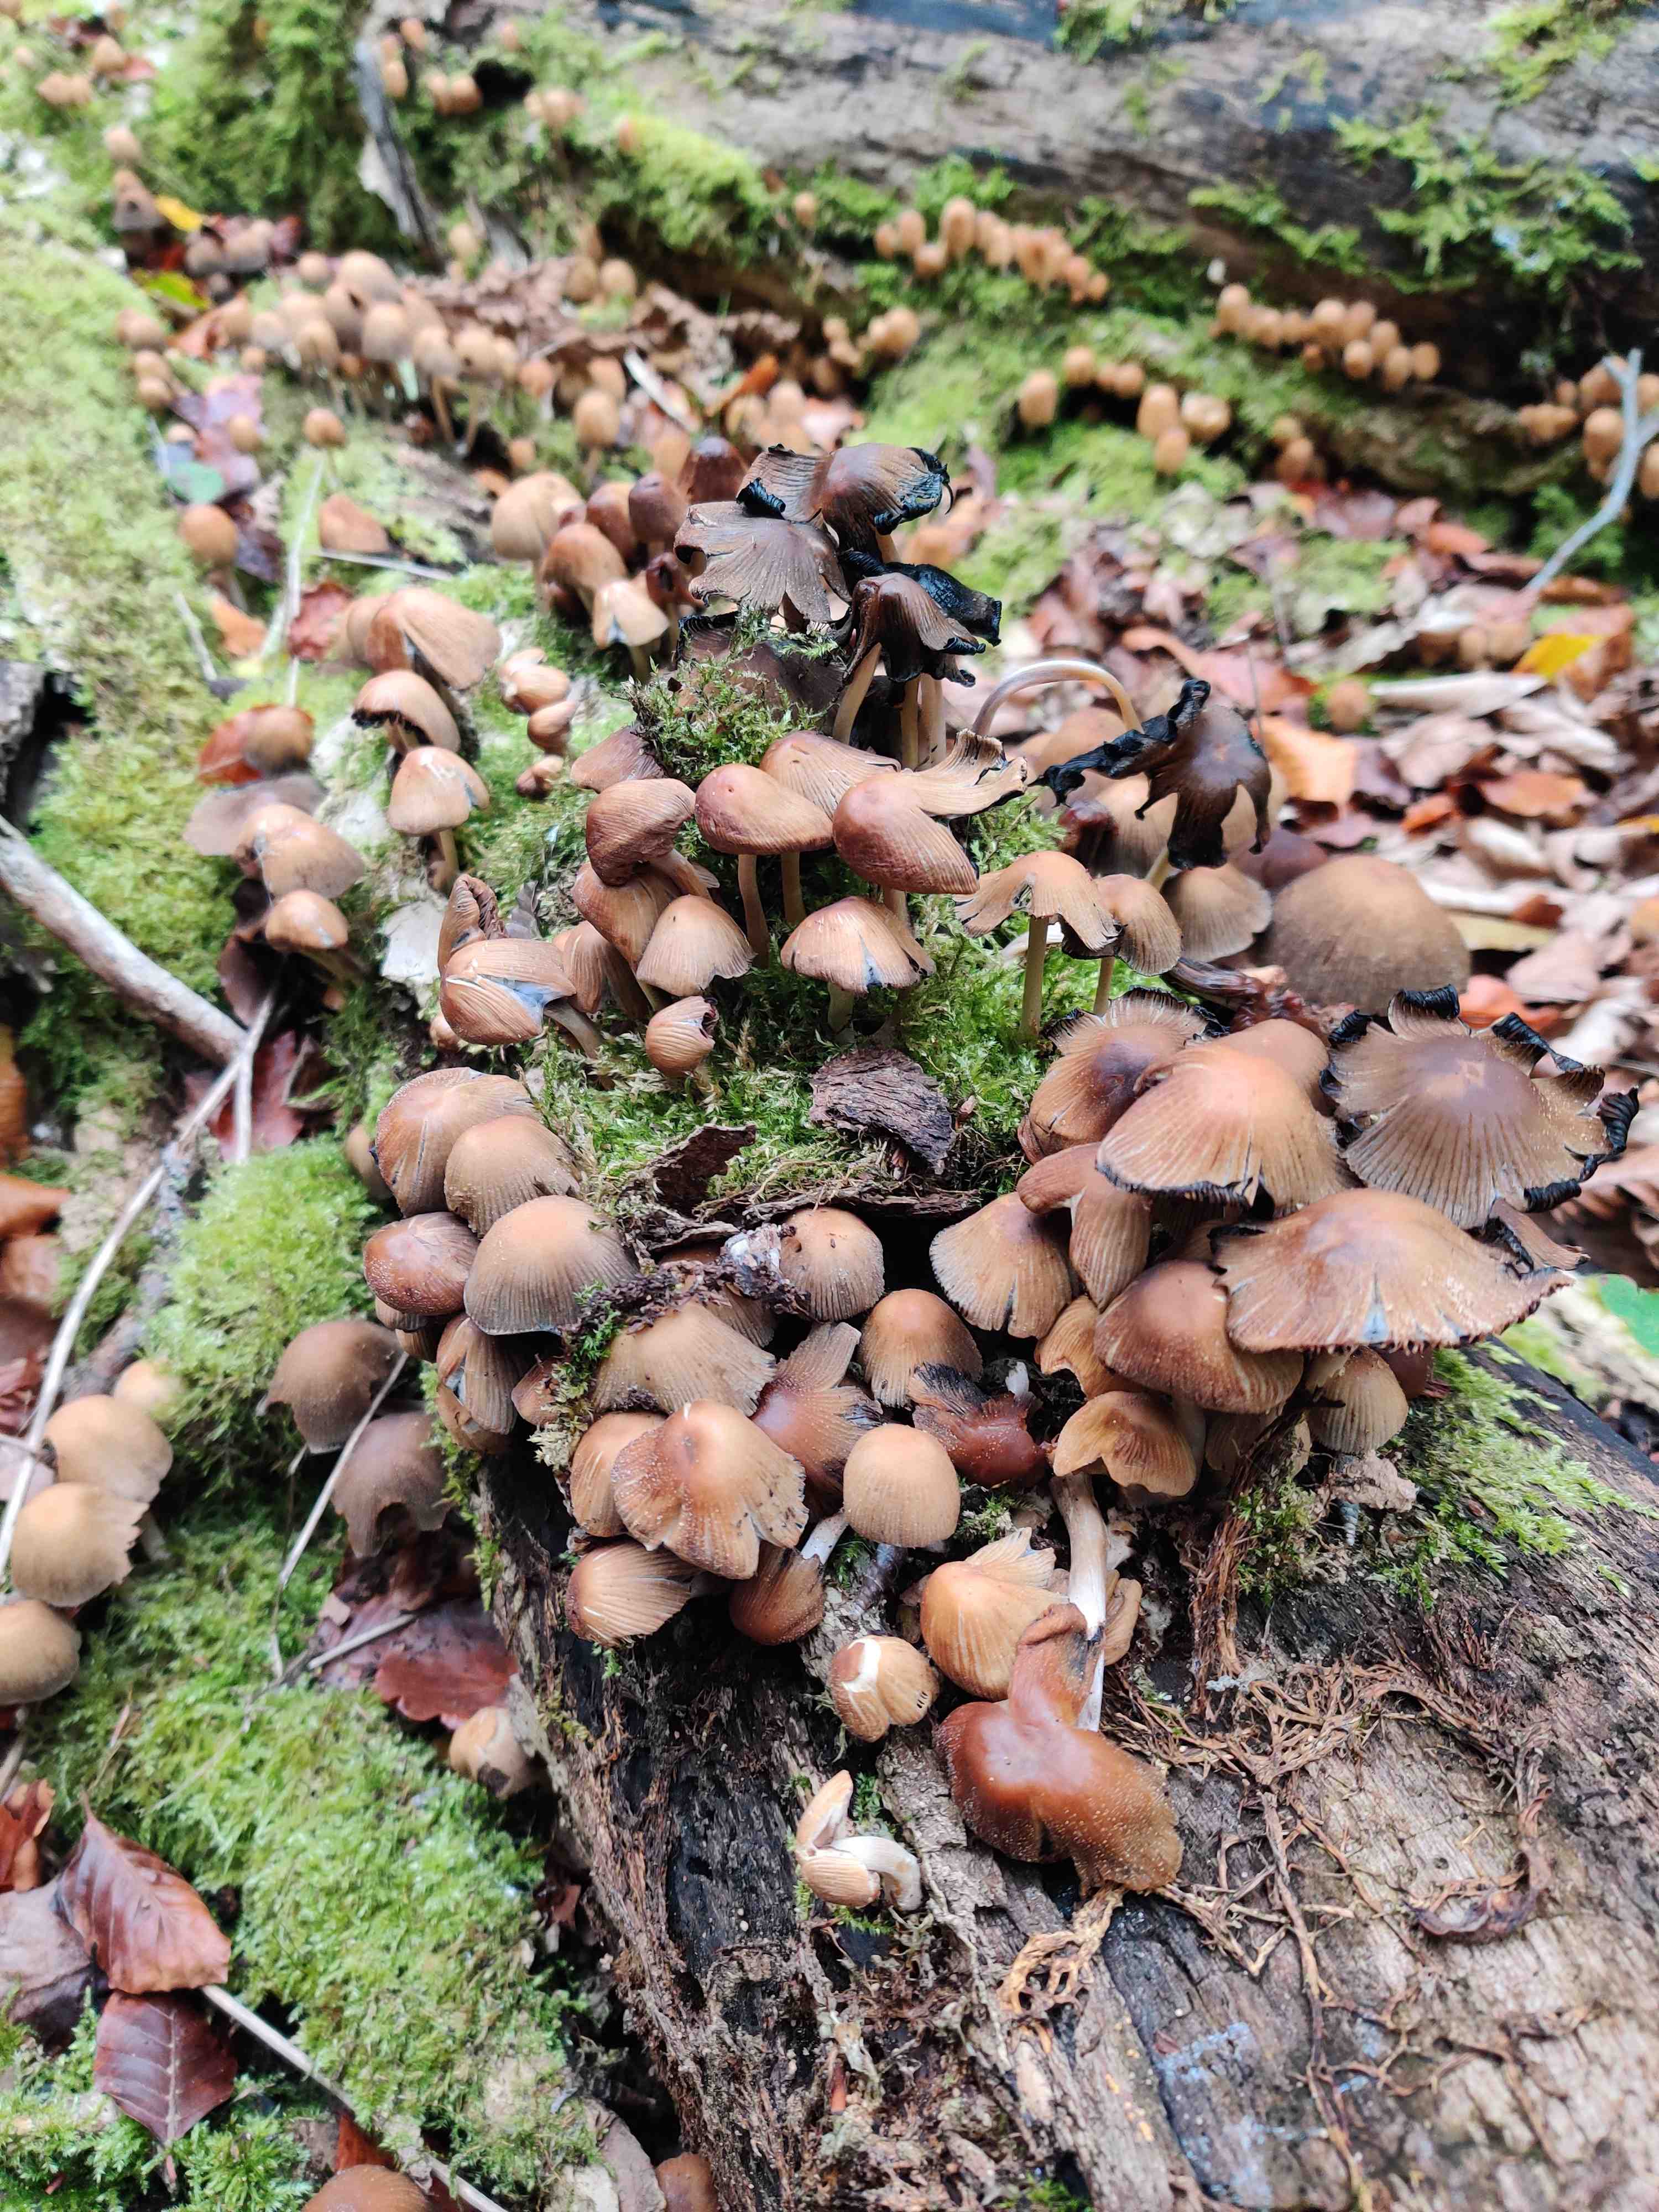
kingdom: Fungi
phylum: Basidiomycota
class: Agaricomycetes
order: Agaricales
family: Psathyrellaceae
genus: Coprinellus
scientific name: Coprinellus
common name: blækhat
